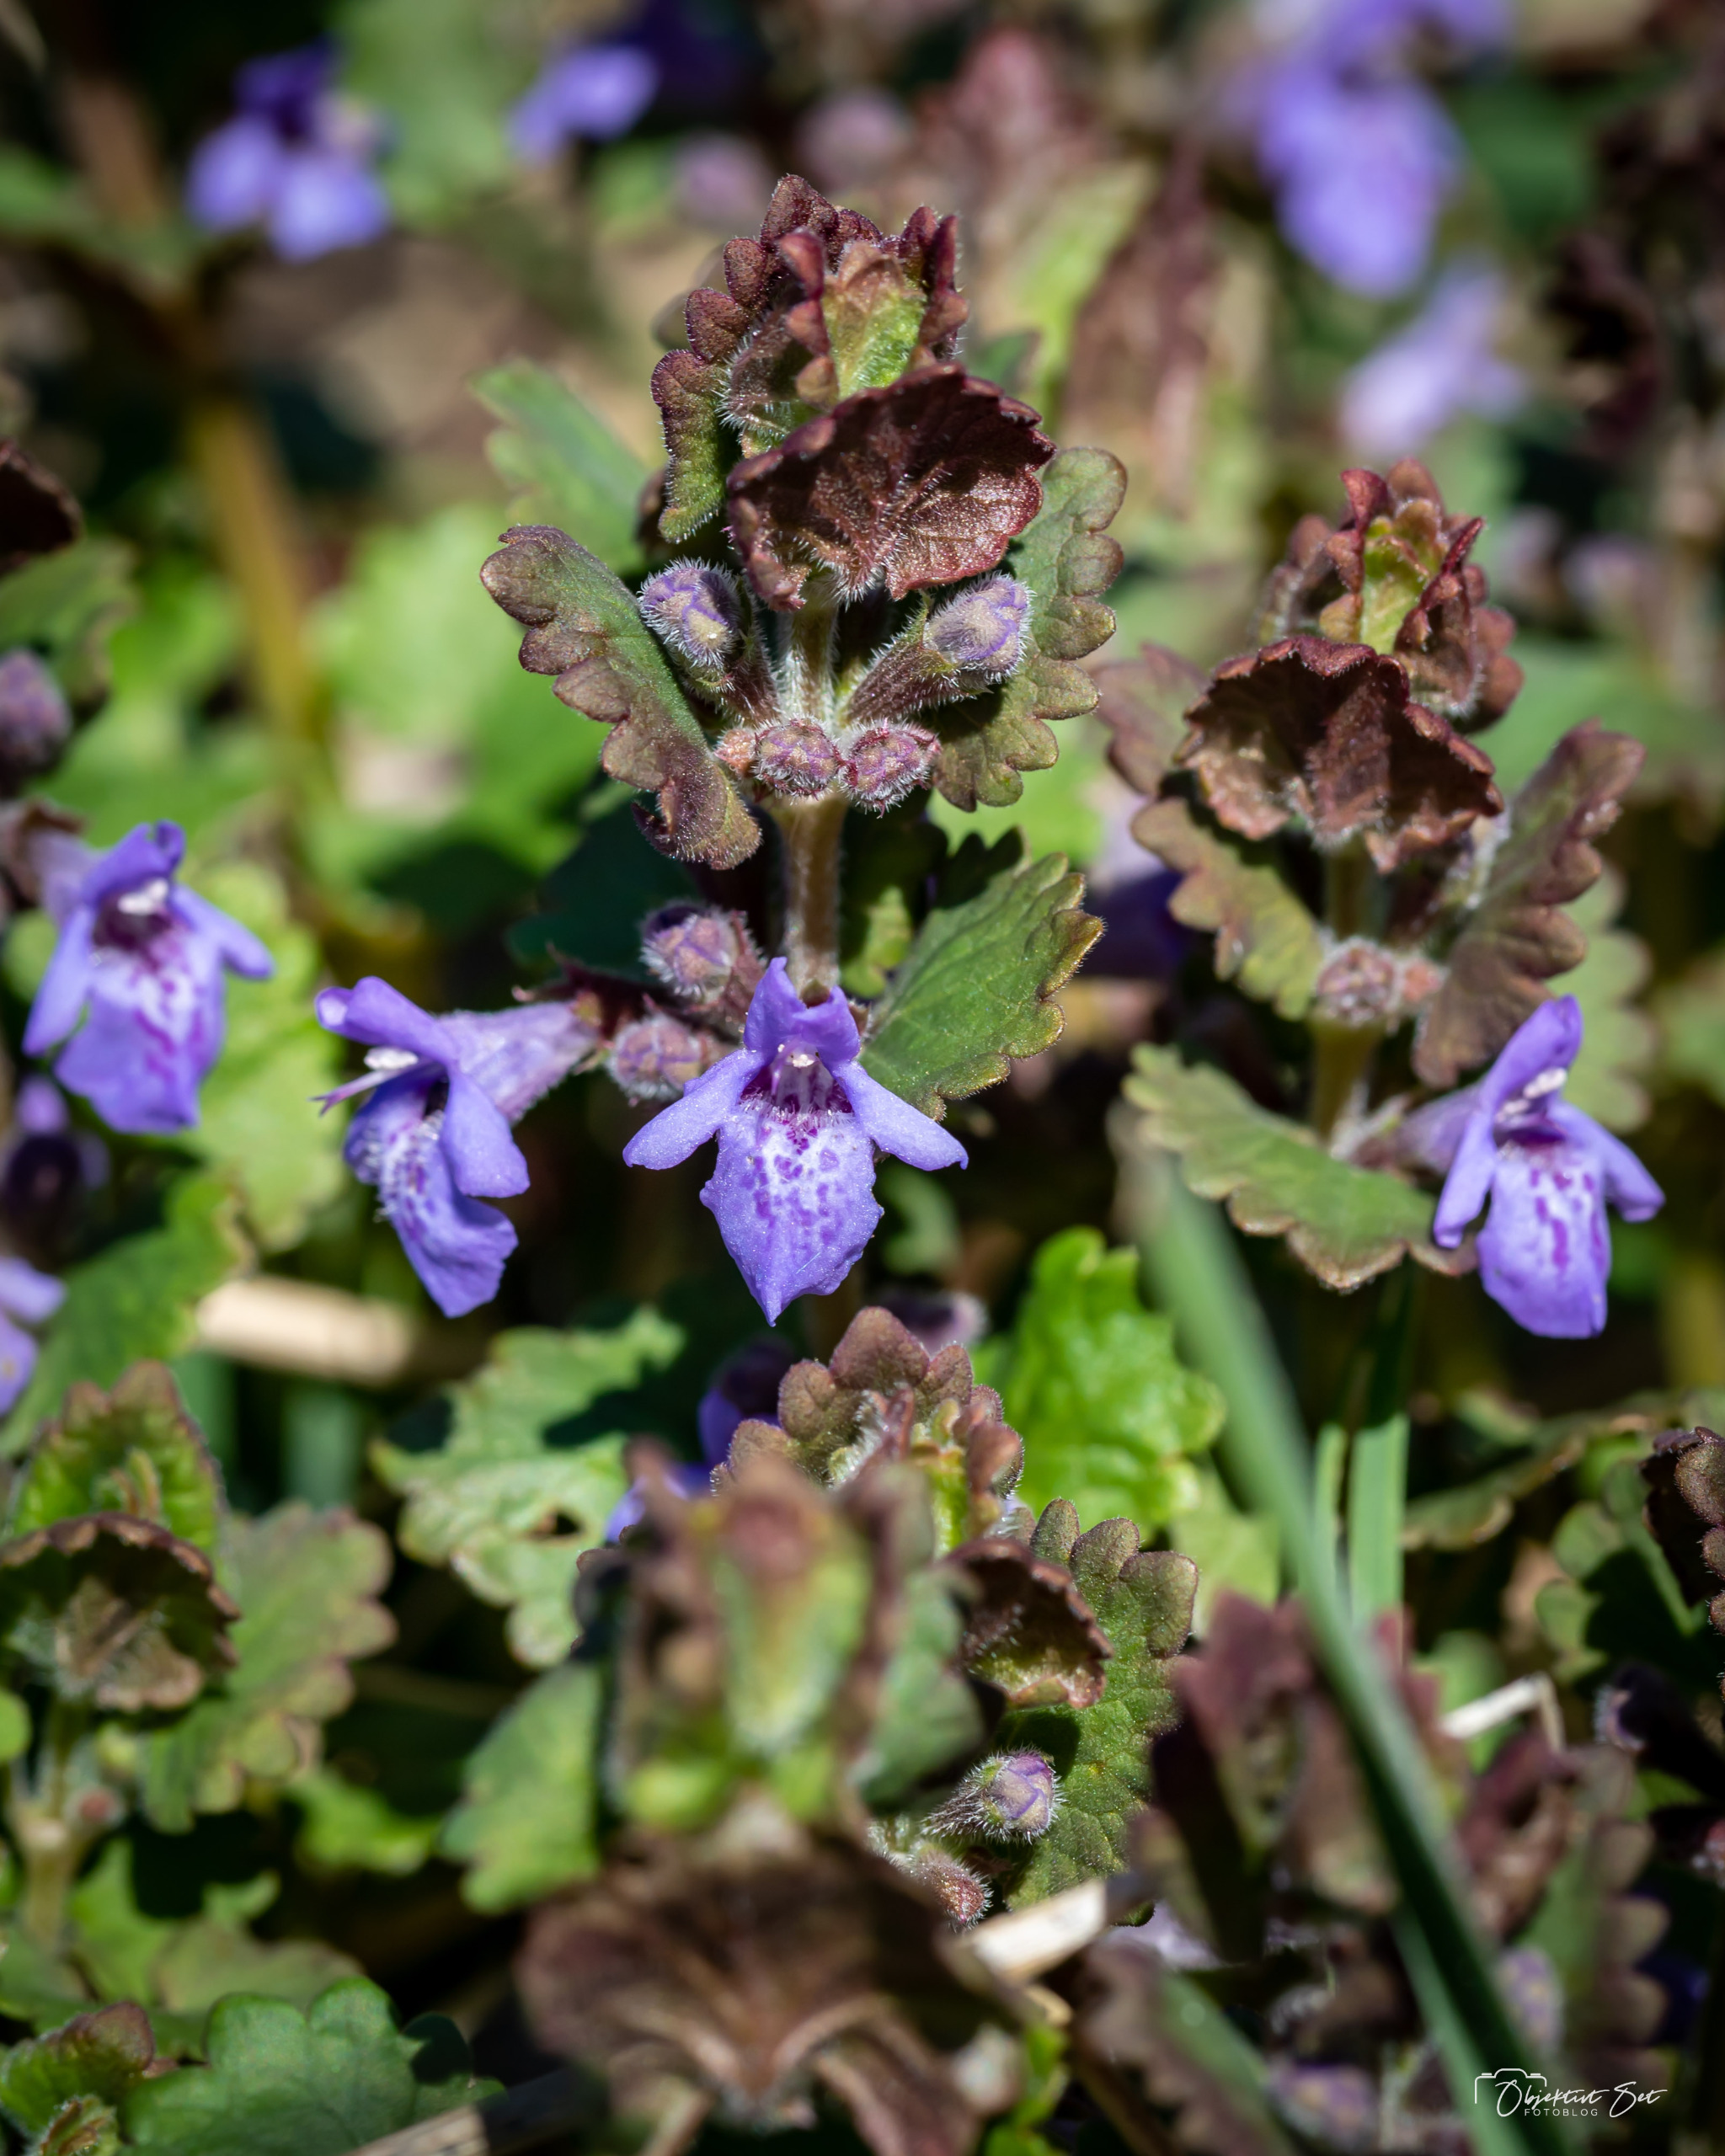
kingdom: Plantae
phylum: Tracheophyta
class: Magnoliopsida
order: Lamiales
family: Lamiaceae
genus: Glechoma
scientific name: Glechoma hederacea
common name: Korsknap
